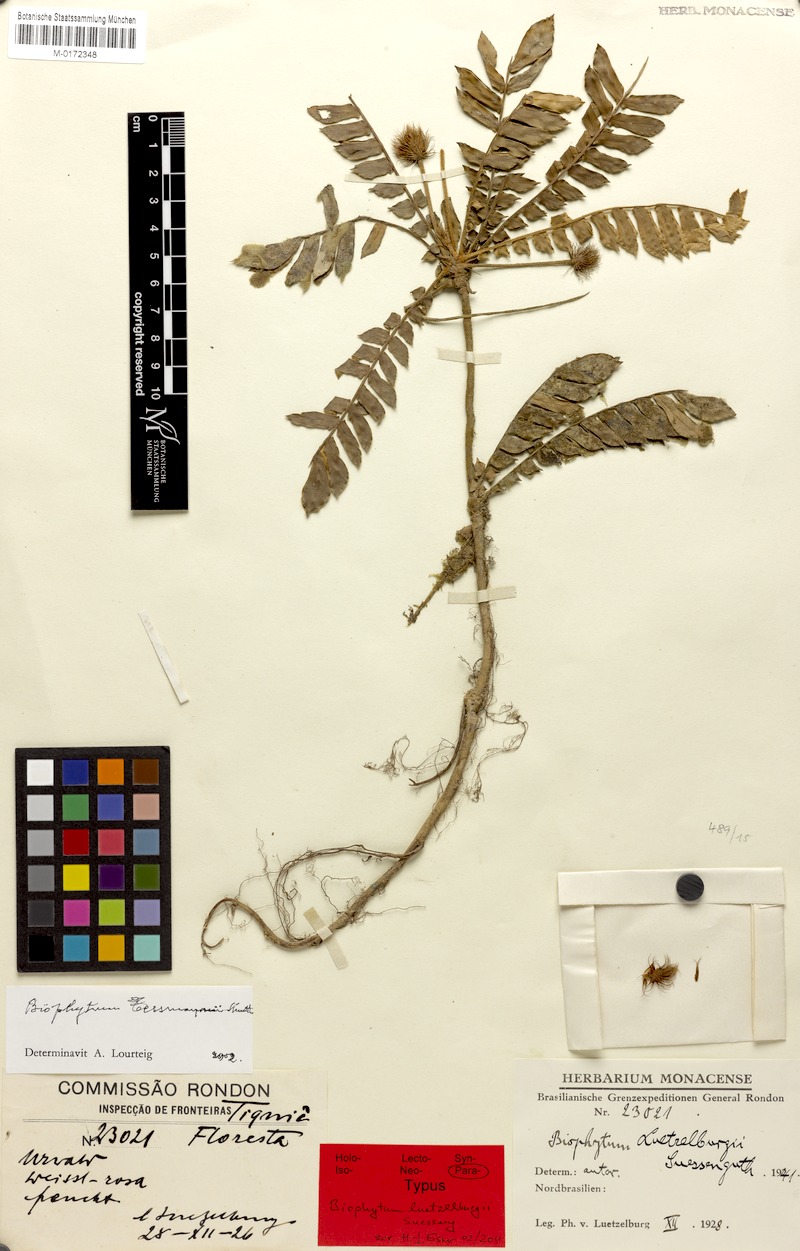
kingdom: Plantae
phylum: Tracheophyta
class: Magnoliopsida
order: Oxalidales
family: Oxalidaceae
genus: Biophytum
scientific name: Biophytum tessmannii
